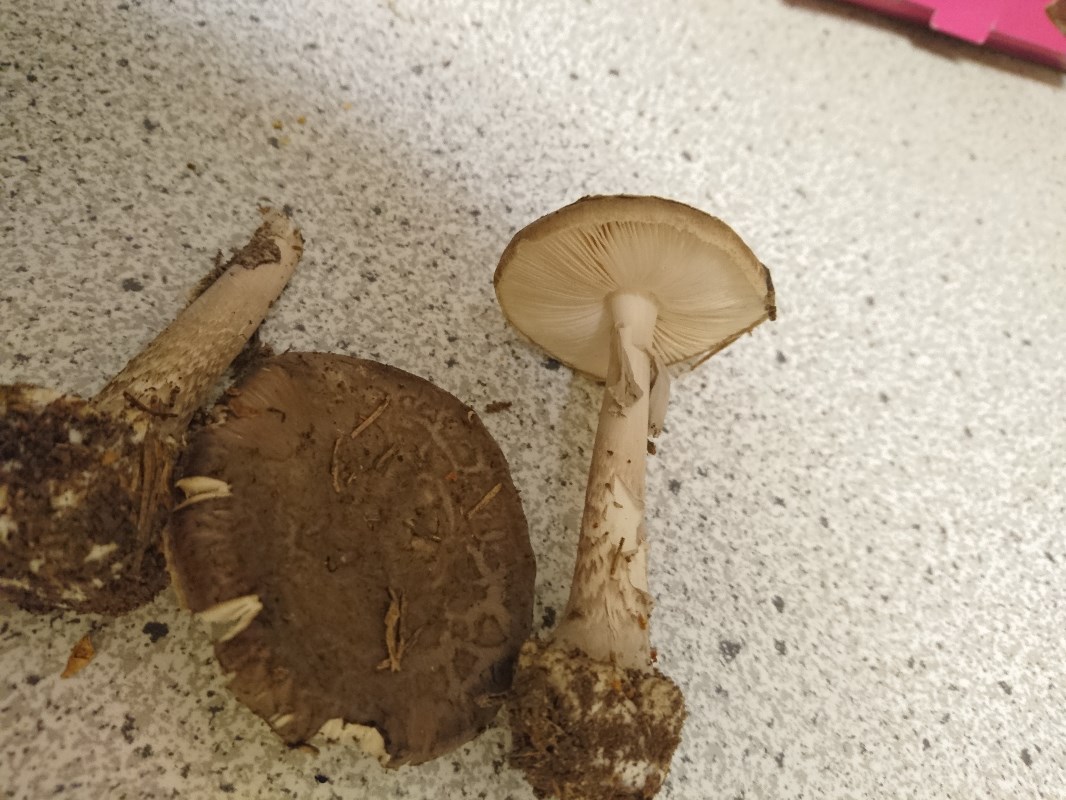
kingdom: Fungi
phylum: Basidiomycota
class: Agaricomycetes
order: Agaricales
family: Amanitaceae
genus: Amanita
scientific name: Amanita porphyria
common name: porfyr-fluesvamp
